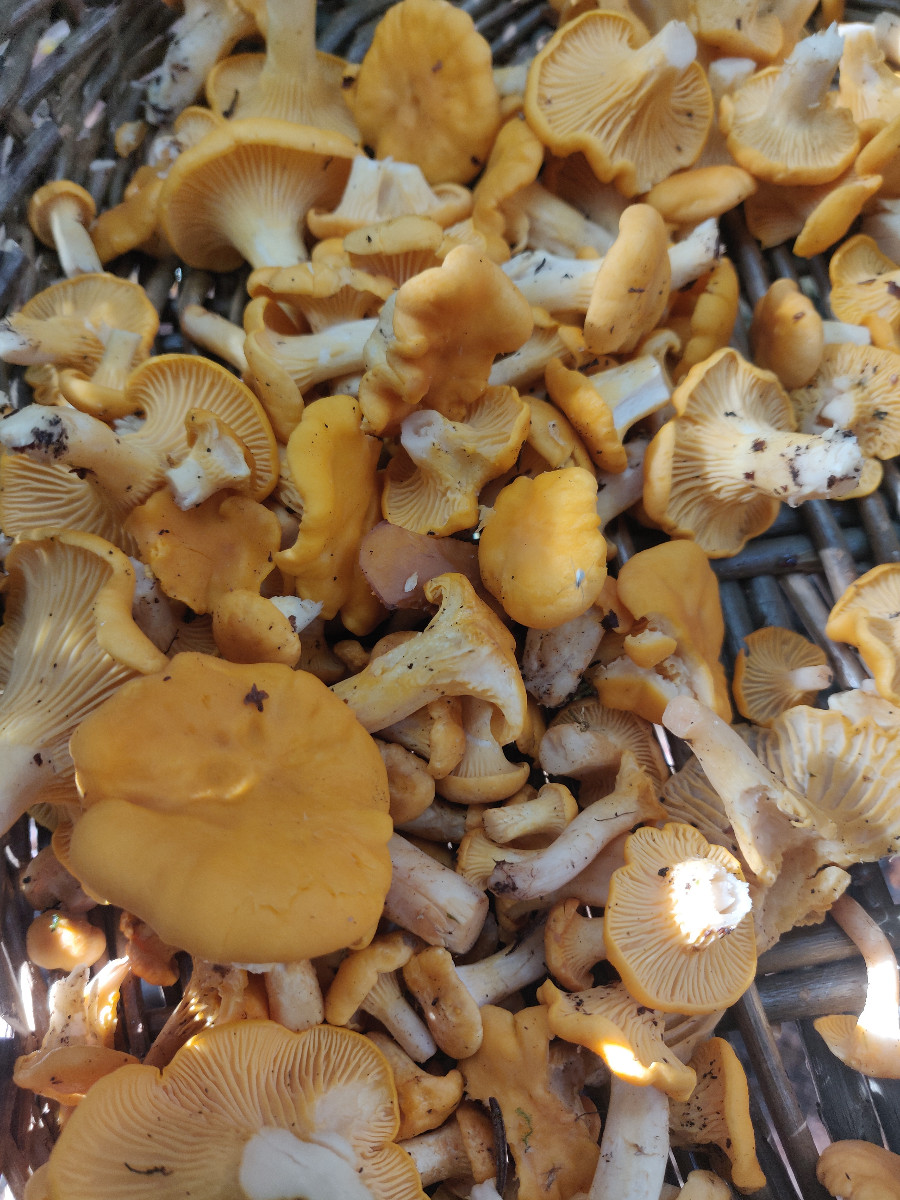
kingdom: Fungi
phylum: Basidiomycota
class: Agaricomycetes
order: Cantharellales
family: Hydnaceae
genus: Cantharellus
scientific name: Cantharellus cibarius
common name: almindelig kantarel
